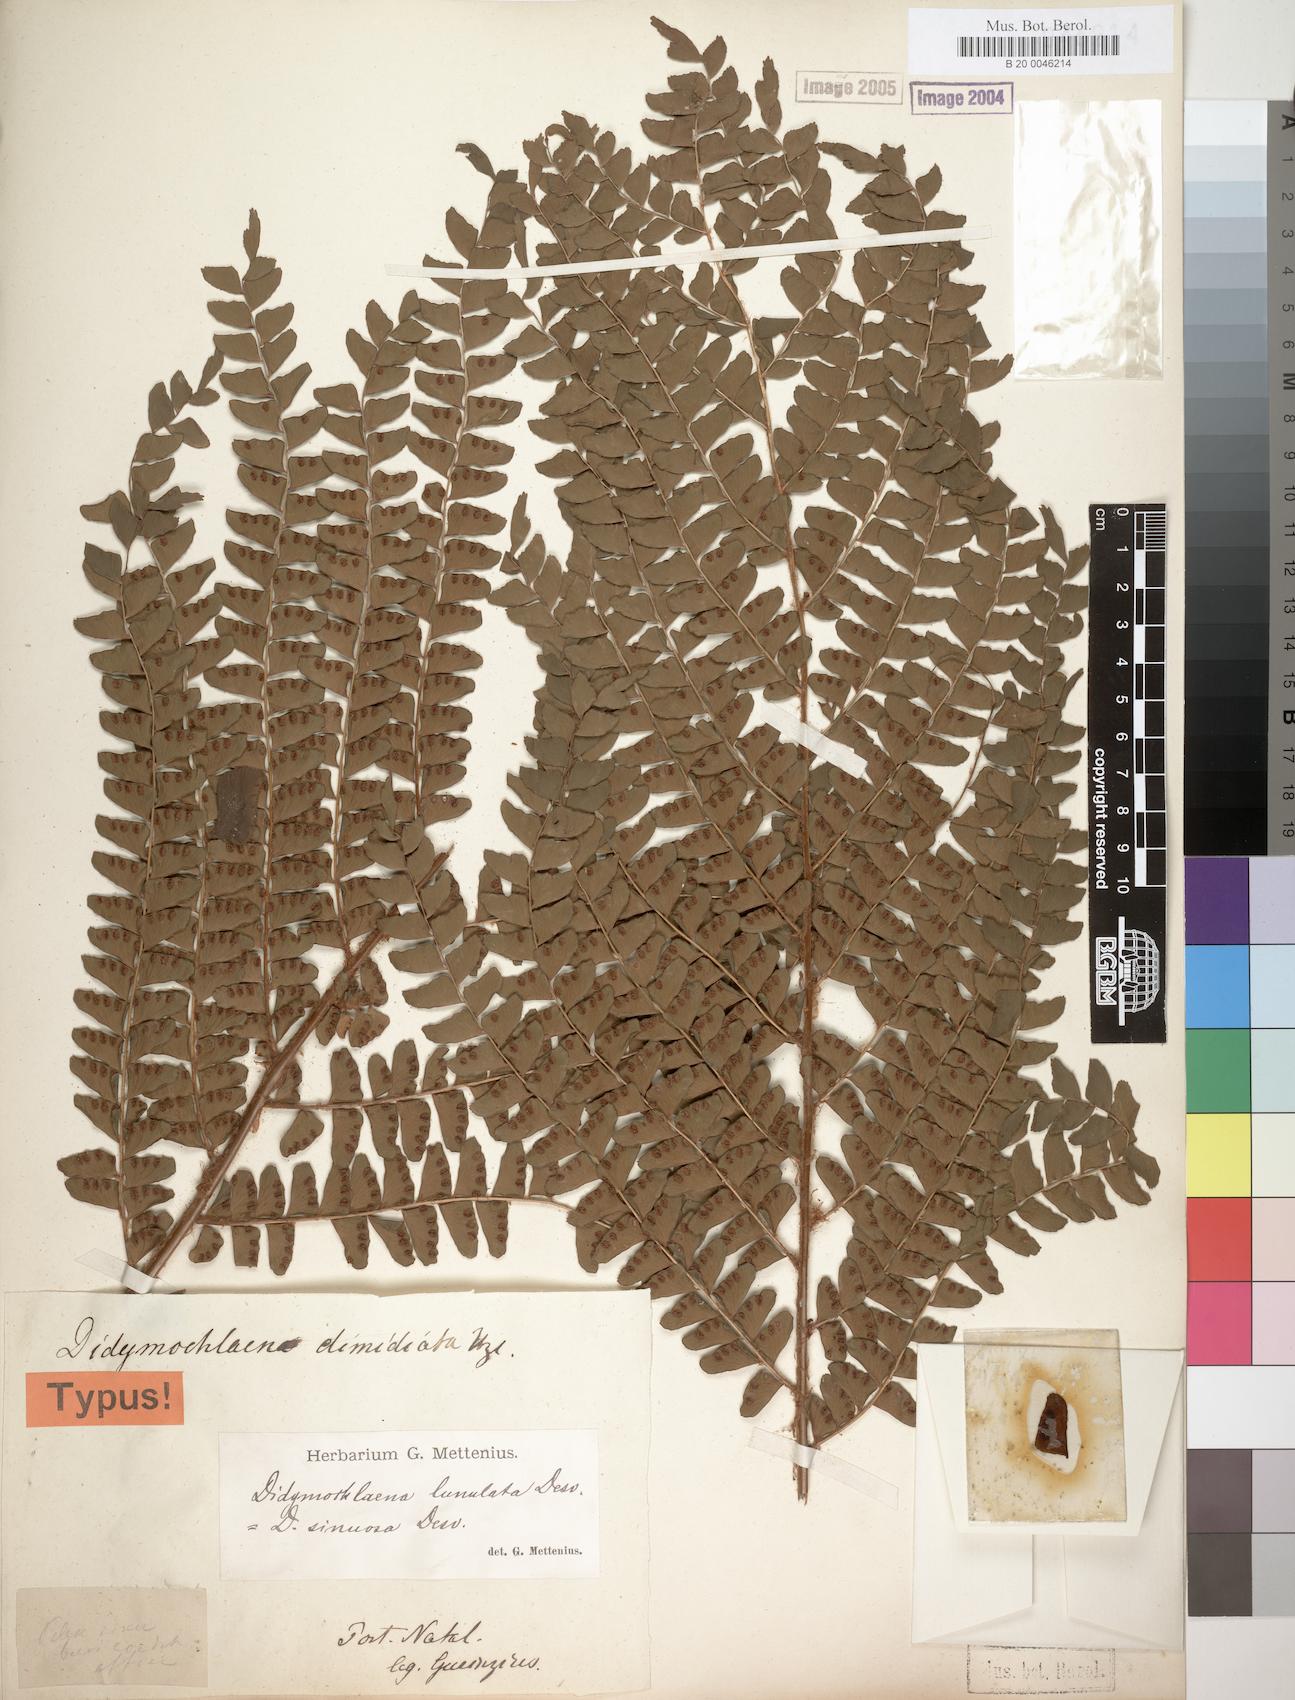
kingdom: Plantae
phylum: Tracheophyta
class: Polypodiopsida
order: Polypodiales
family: Didymochlaenaceae
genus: Didymochlaena
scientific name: Didymochlaena truncatula
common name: Mahogany fern
